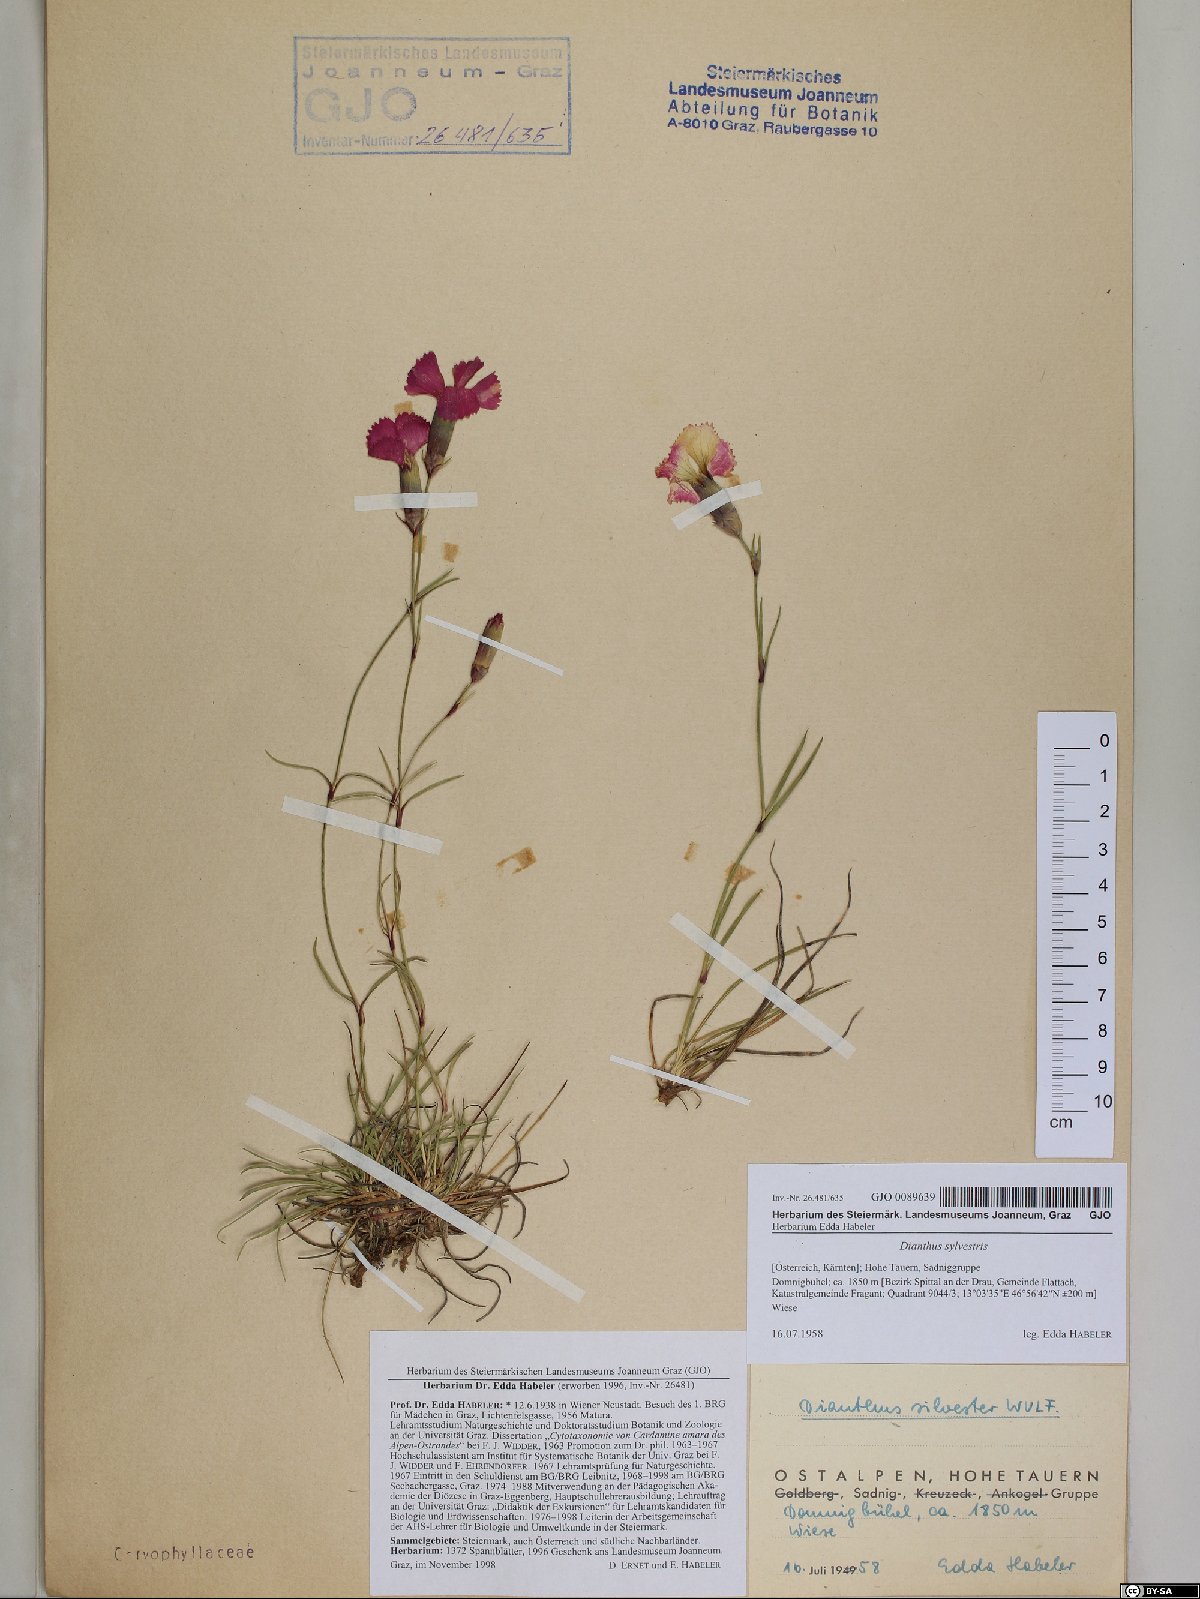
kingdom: Plantae
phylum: Tracheophyta
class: Magnoliopsida
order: Caryophyllales
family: Caryophyllaceae
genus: Dianthus
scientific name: Dianthus sylvestris
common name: Wood pink
